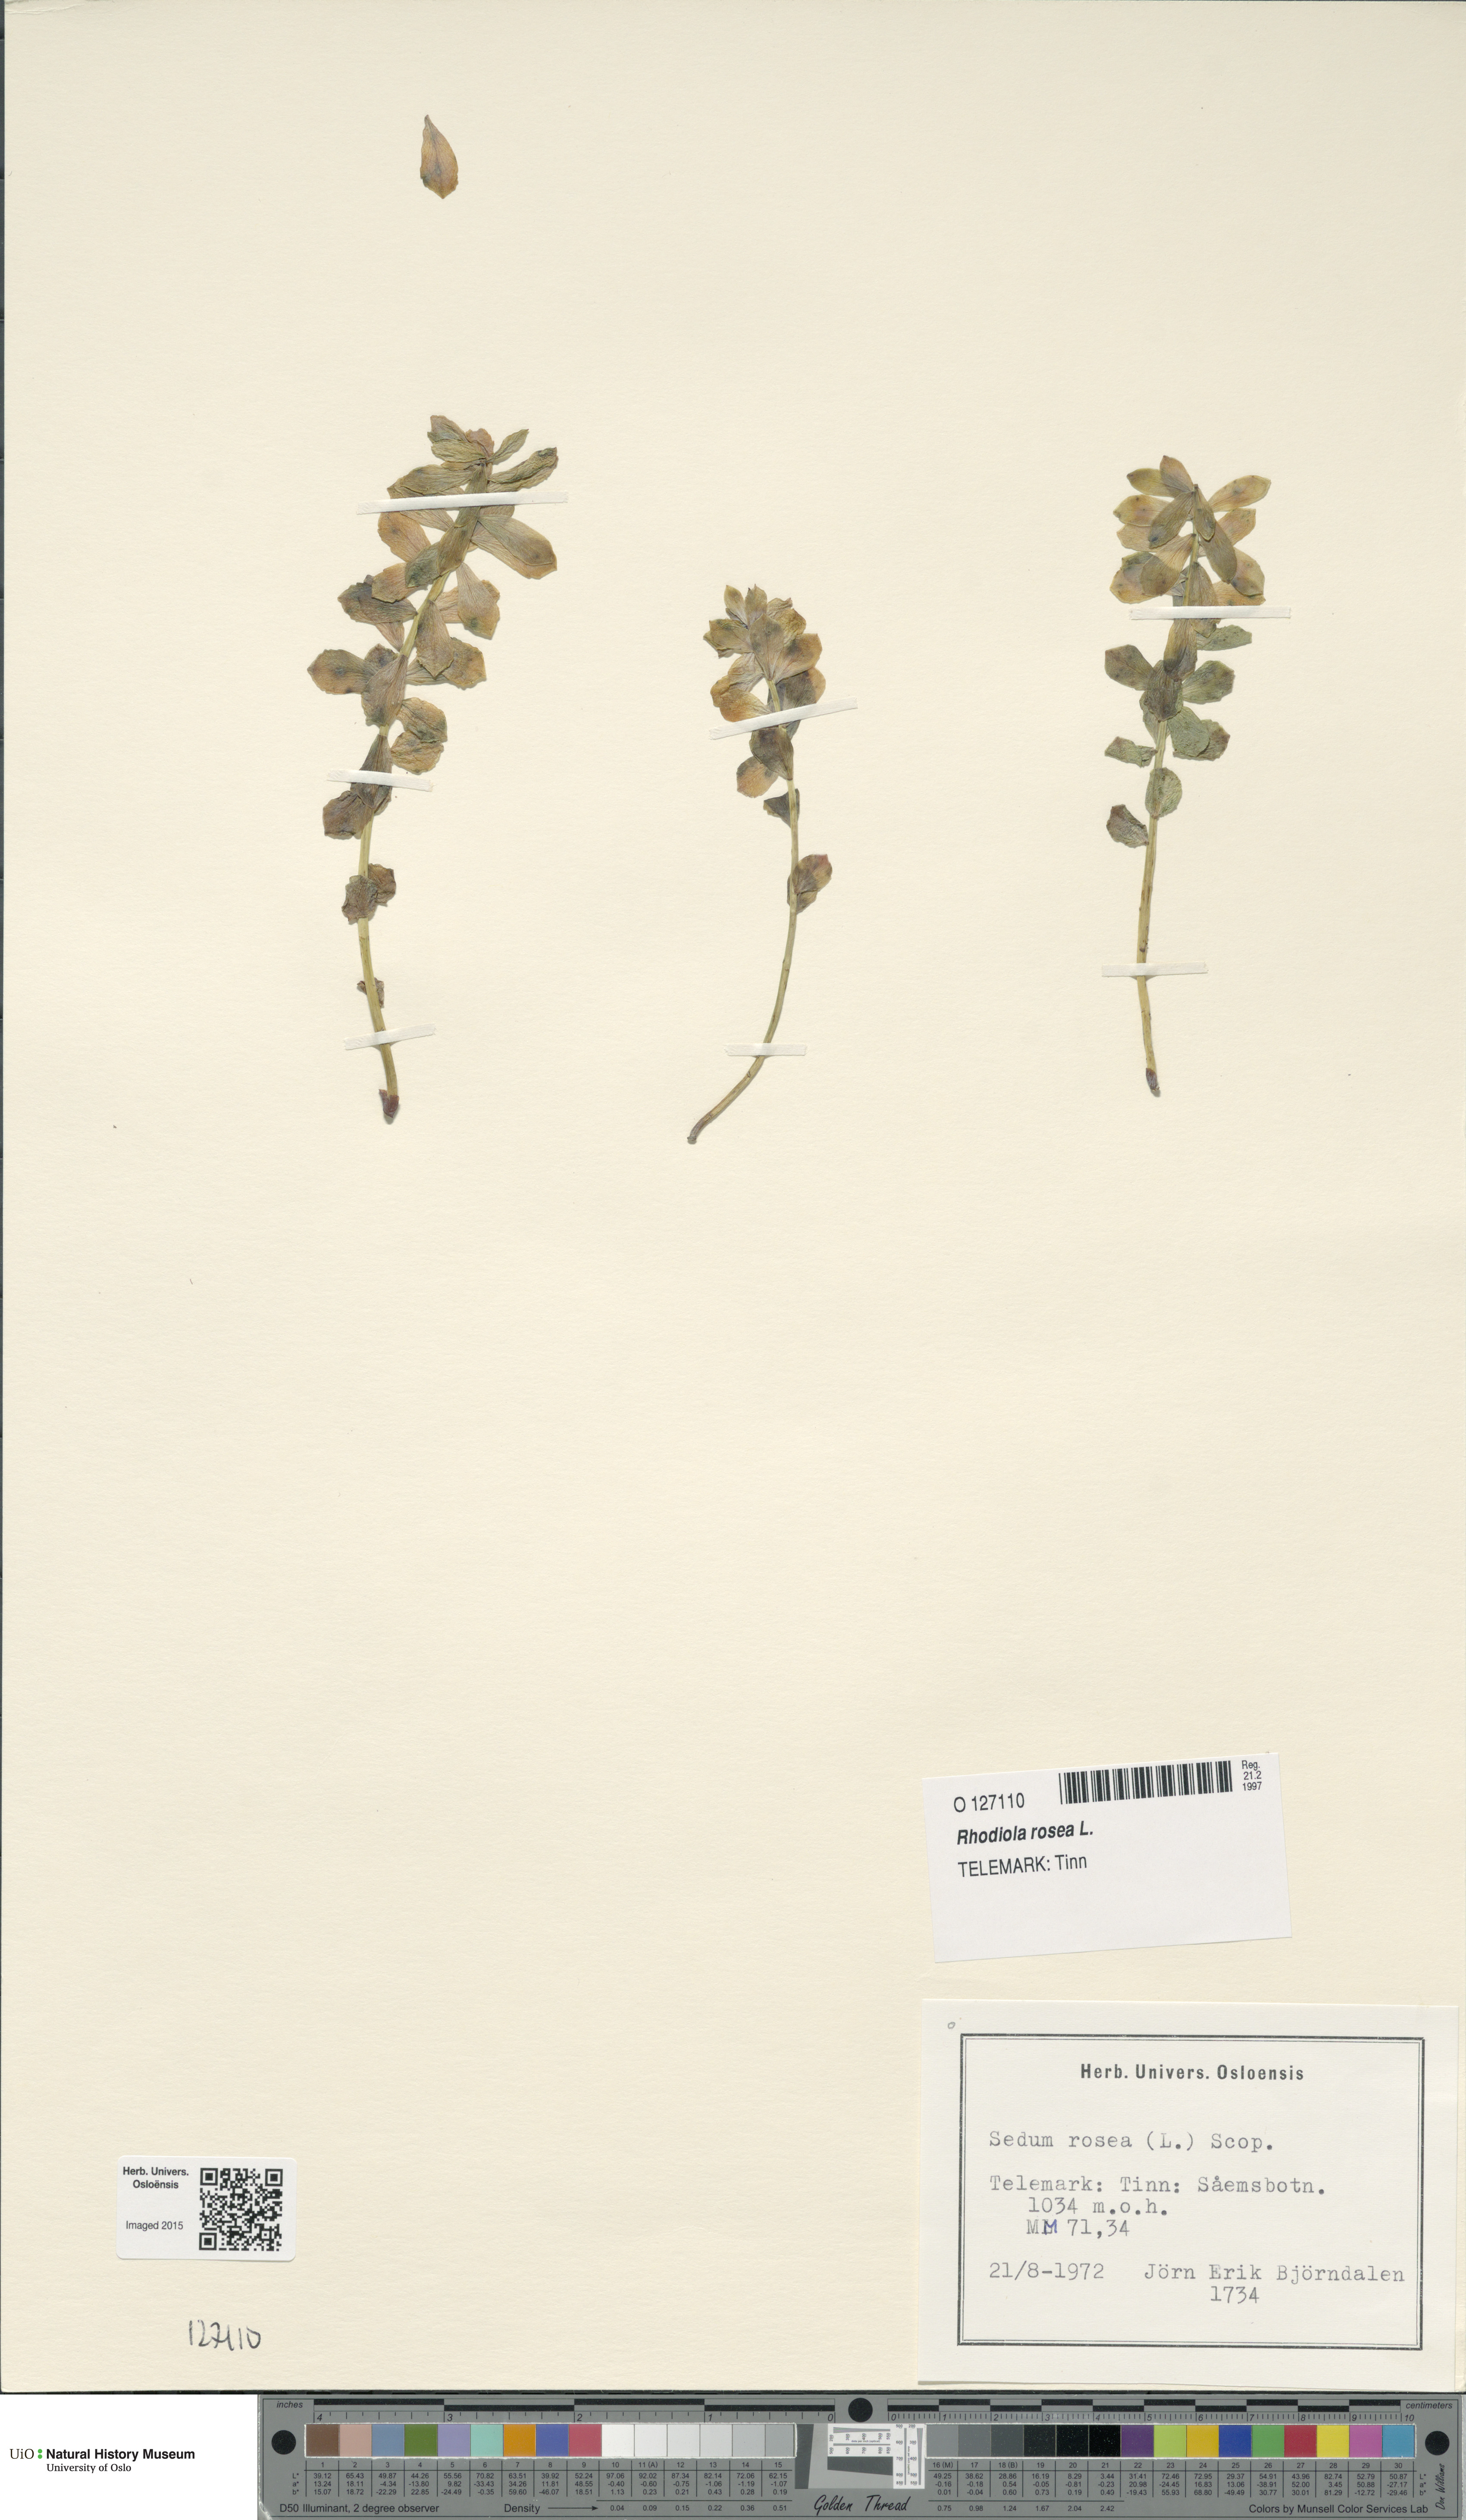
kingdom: Plantae
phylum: Tracheophyta
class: Magnoliopsida
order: Saxifragales
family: Crassulaceae
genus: Rhodiola
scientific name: Rhodiola rosea
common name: Roseroot
